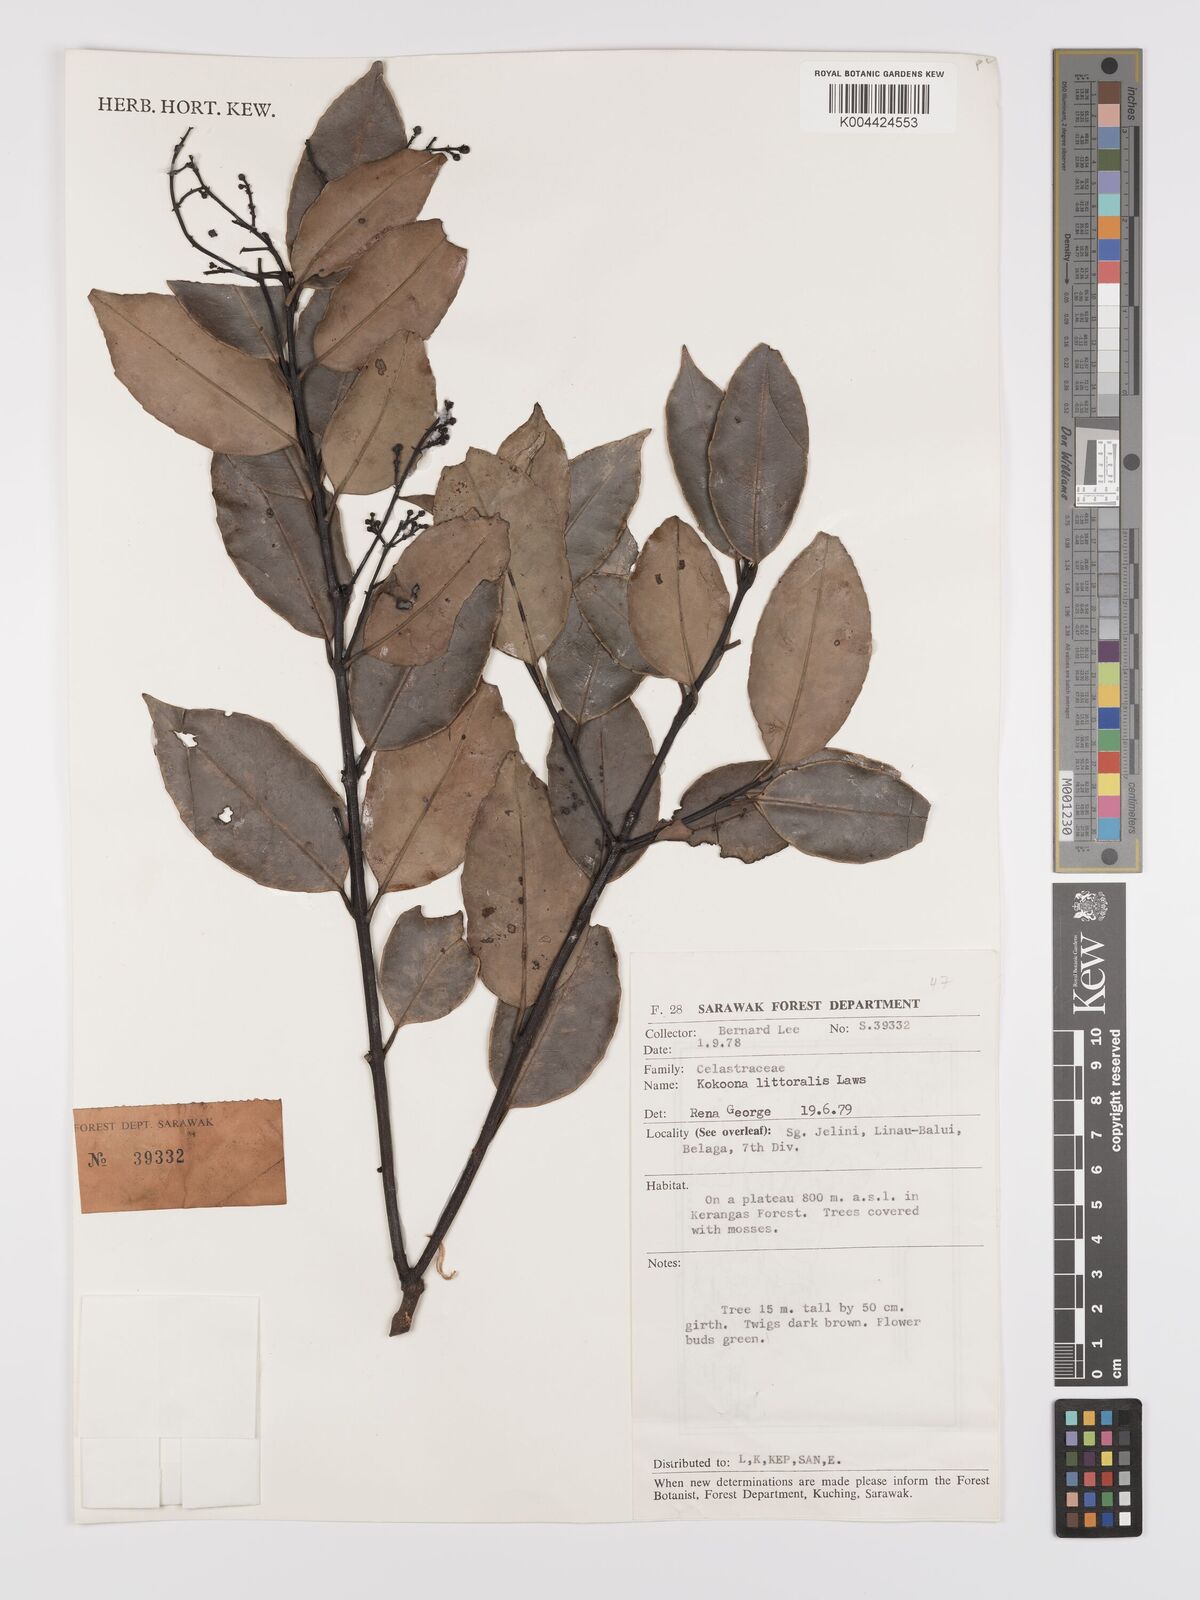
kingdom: Plantae
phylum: Tracheophyta
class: Magnoliopsida
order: Celastrales
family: Celastraceae
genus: Kokoona
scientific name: Kokoona littoralis
